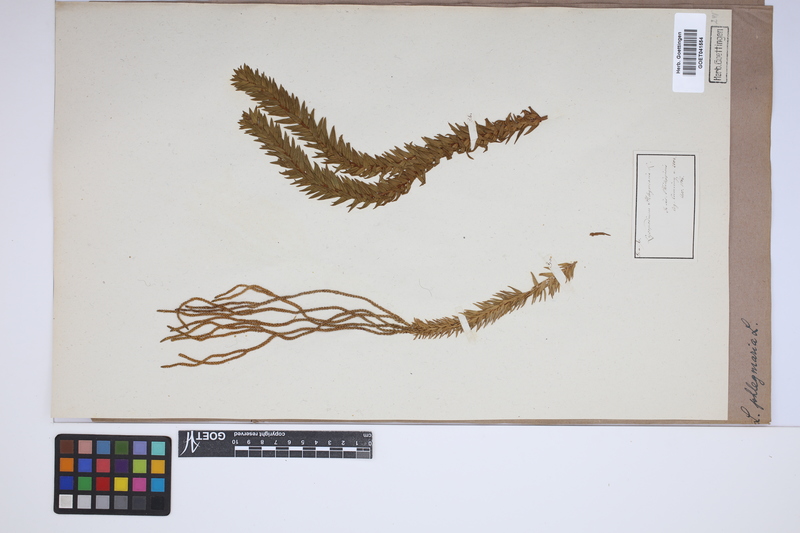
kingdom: Plantae
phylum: Tracheophyta
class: Lycopodiopsida
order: Lycopodiales
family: Lycopodiaceae
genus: Phlegmariurus
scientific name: Phlegmariurus phlegmaria
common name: Coarse tassel-fern
